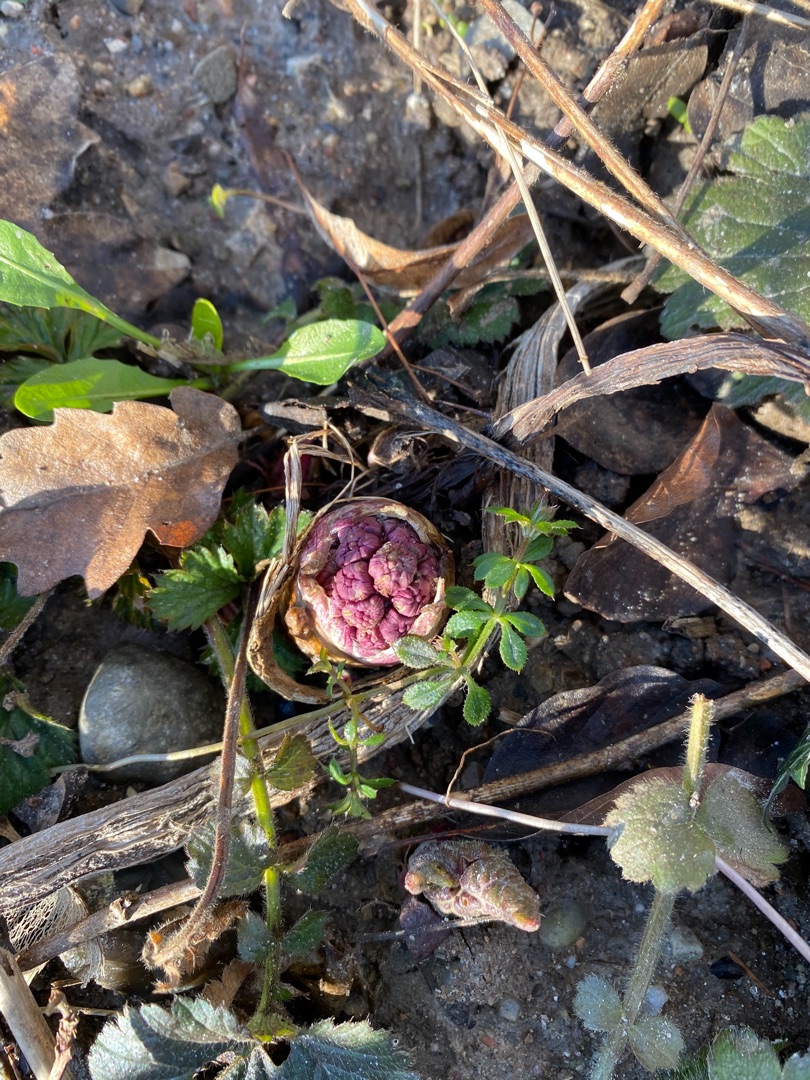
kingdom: Plantae
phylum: Tracheophyta
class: Magnoliopsida
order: Asterales
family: Asteraceae
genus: Petasites
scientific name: Petasites hybridus
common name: Rød hestehov
